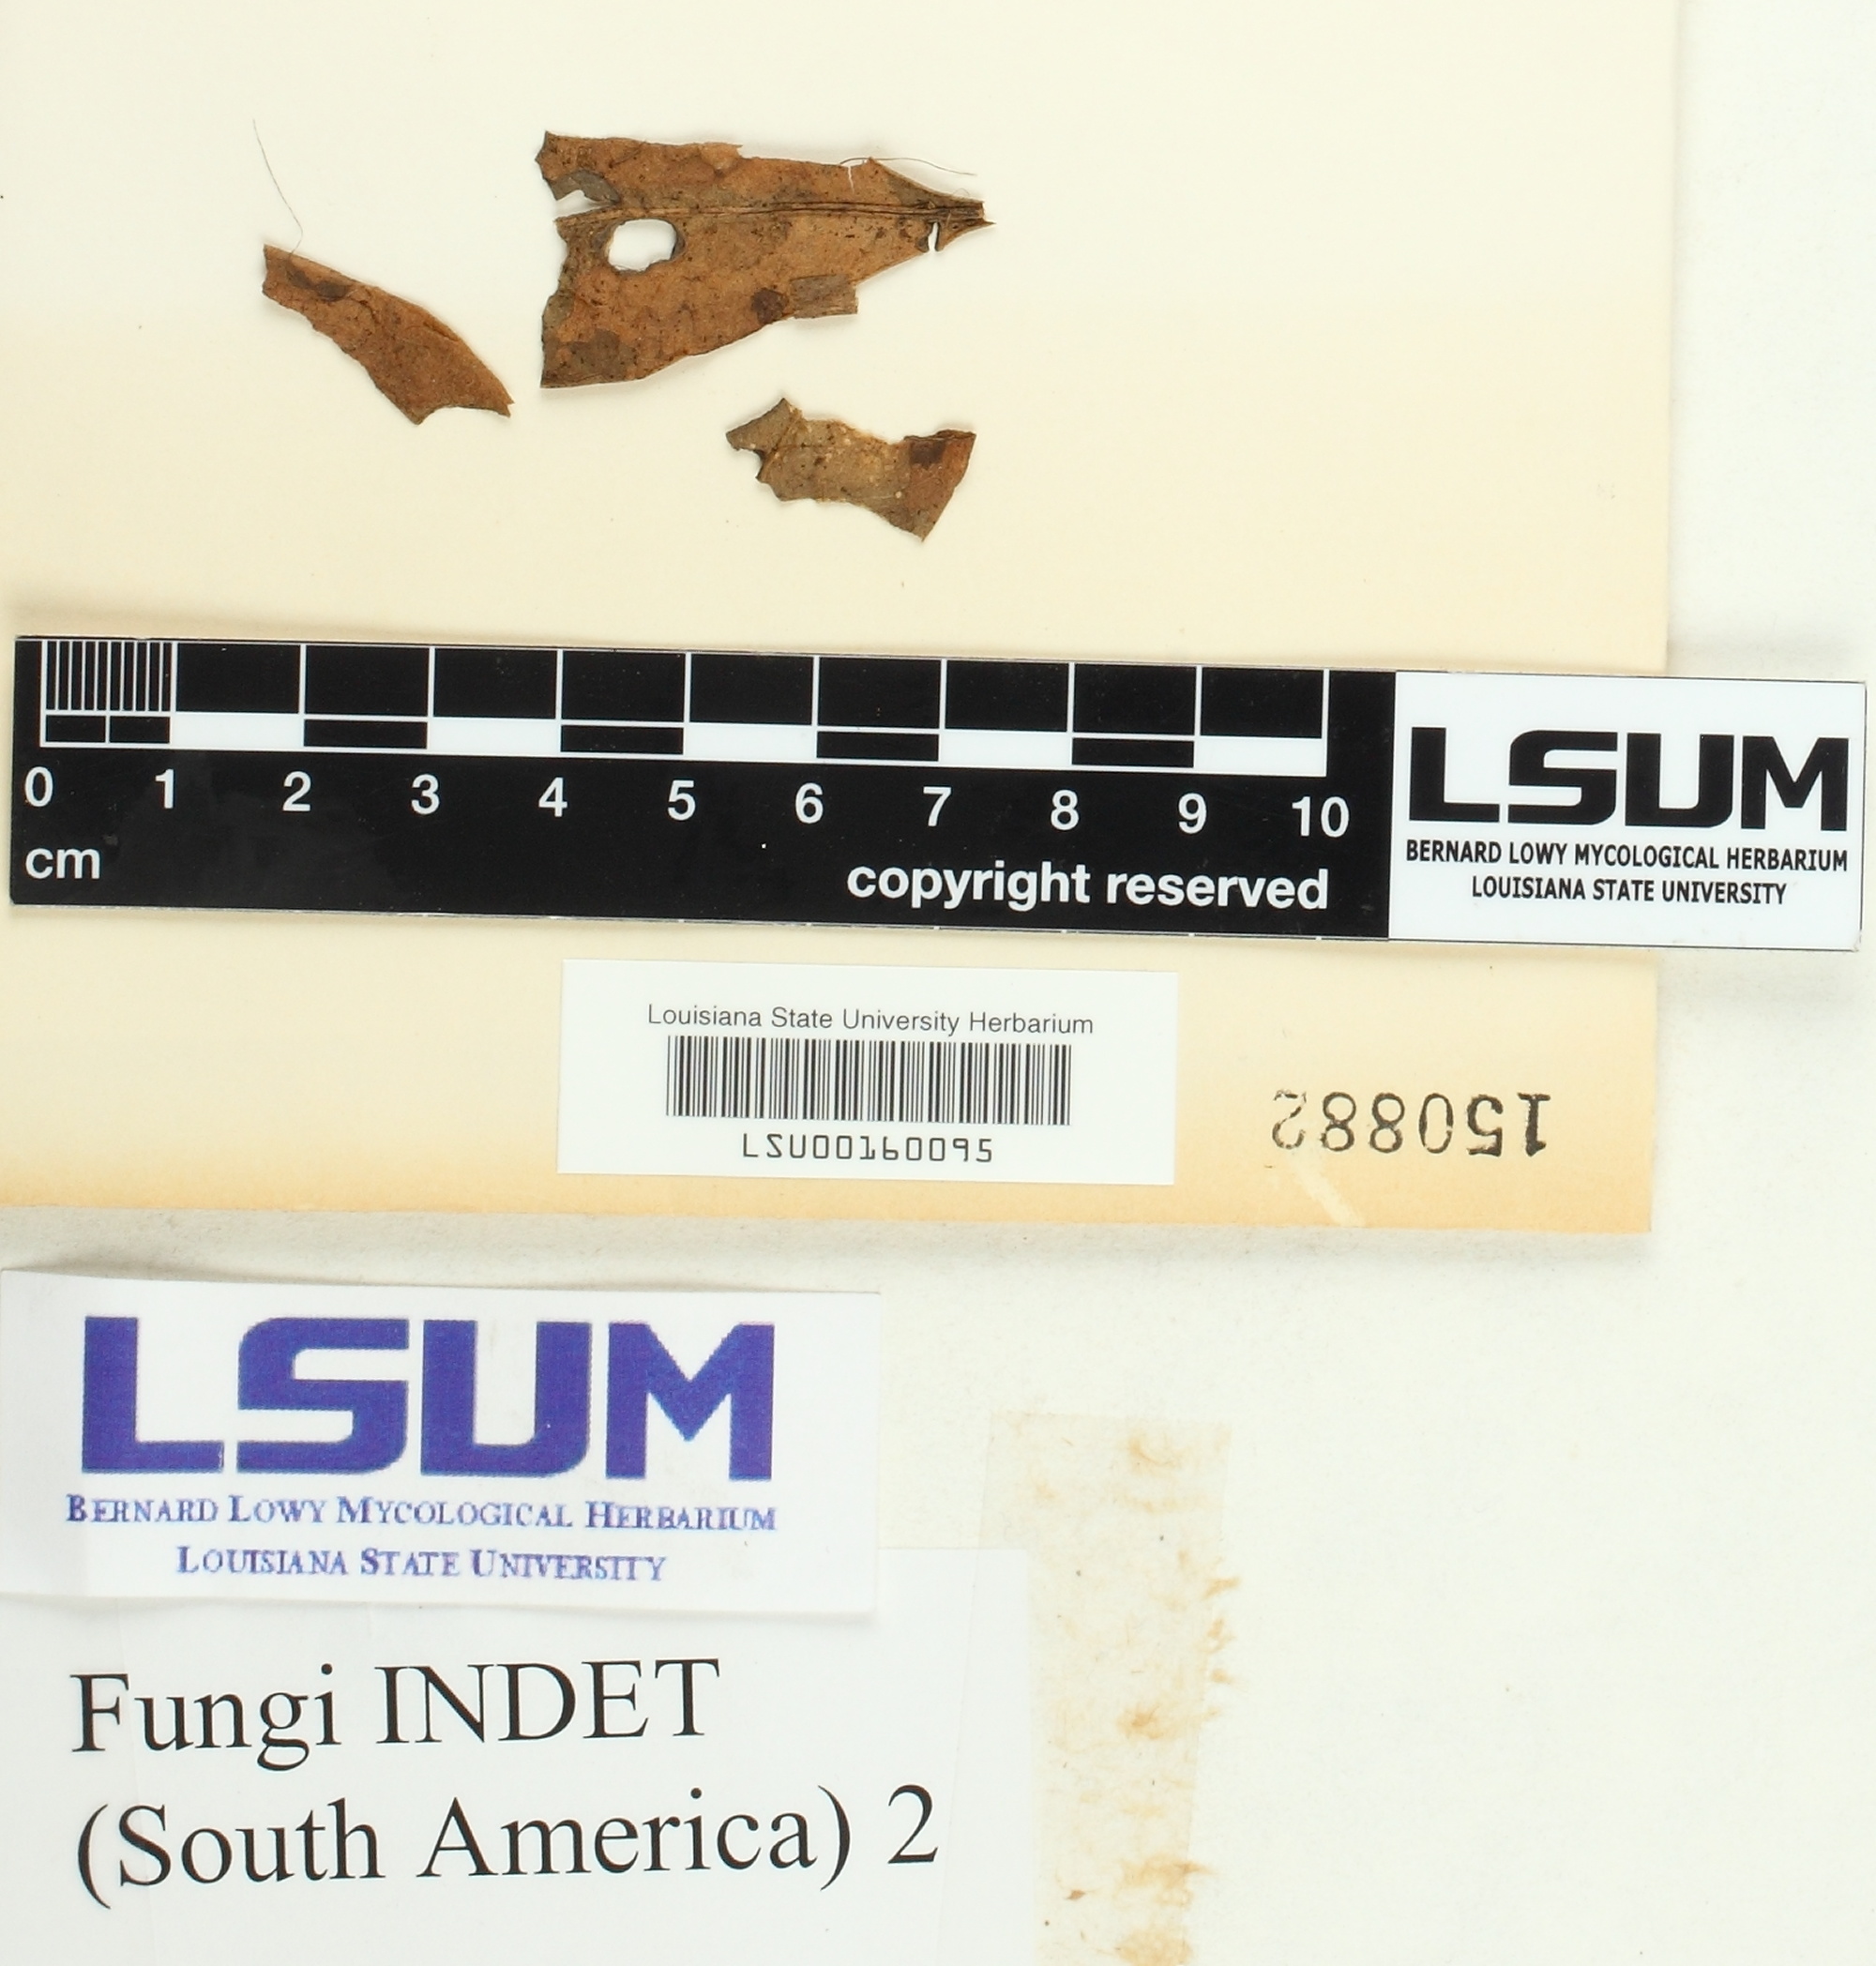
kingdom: Fungi
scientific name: Fungi
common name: Fungi
